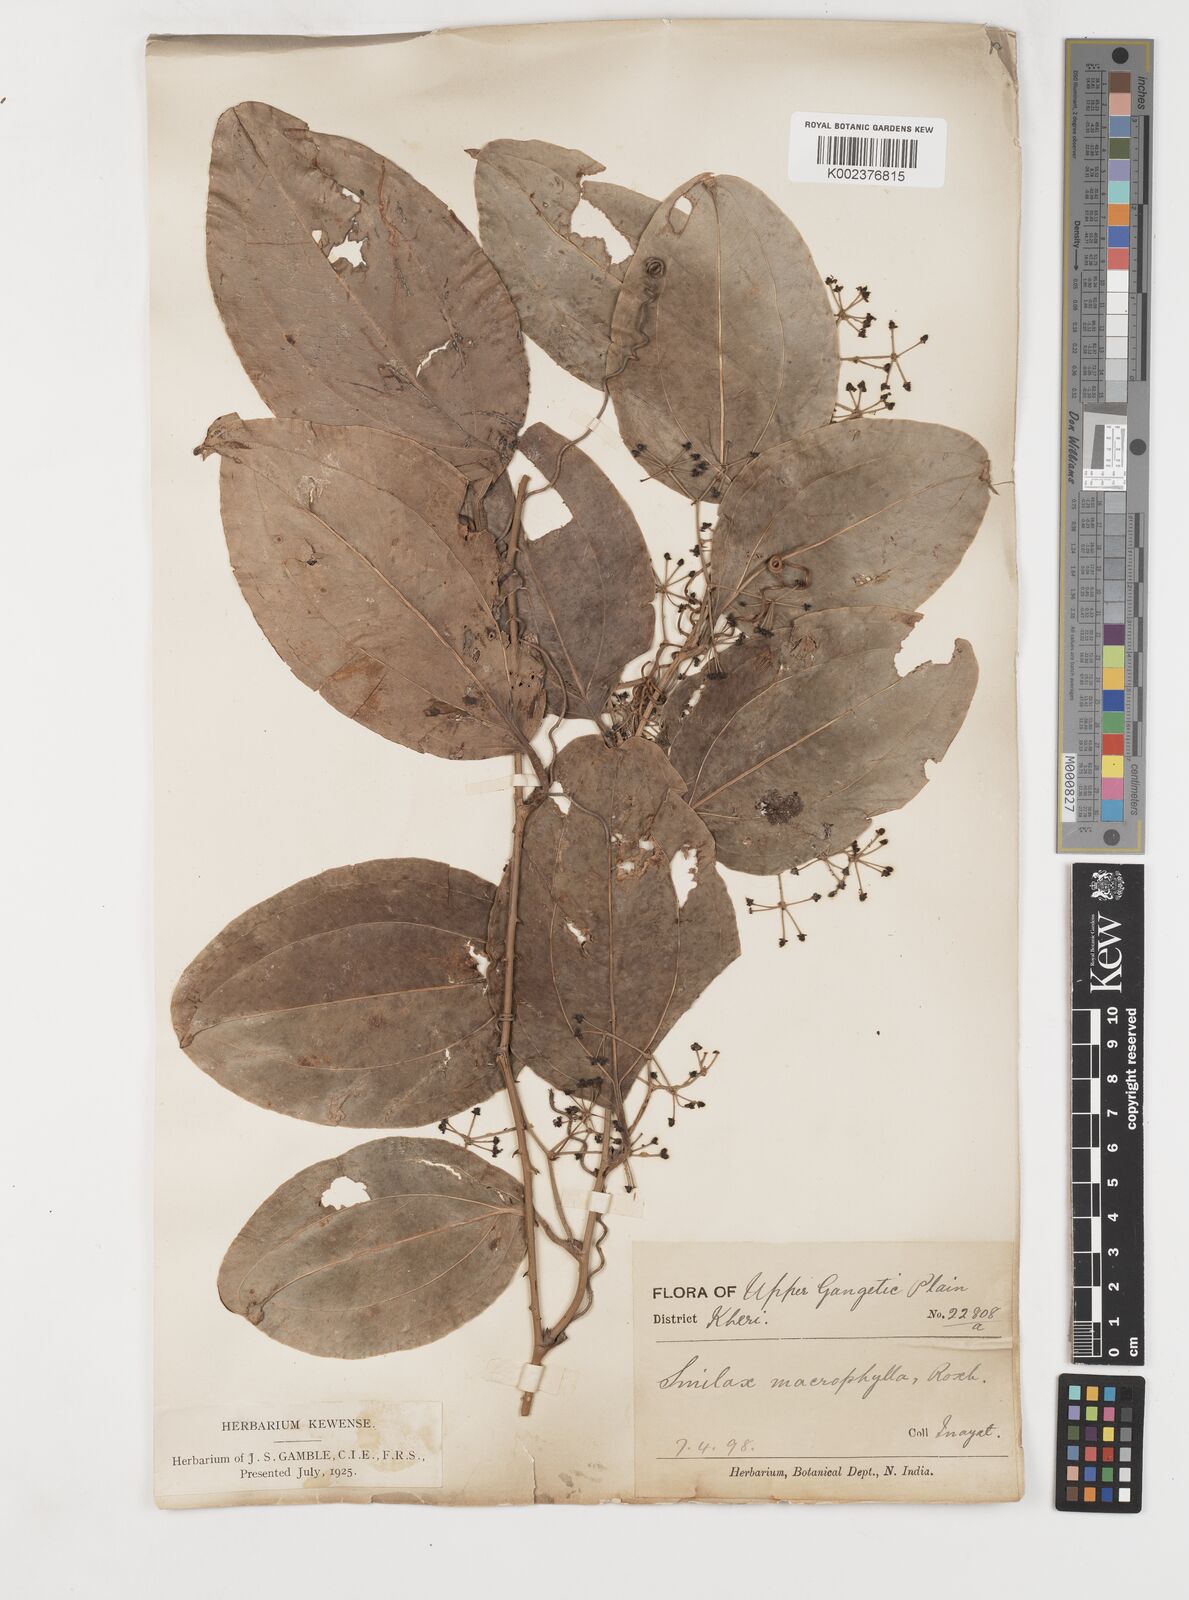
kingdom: Plantae
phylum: Tracheophyta
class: Liliopsida
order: Liliales
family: Smilacaceae
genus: Smilax
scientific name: Smilax prolifera
